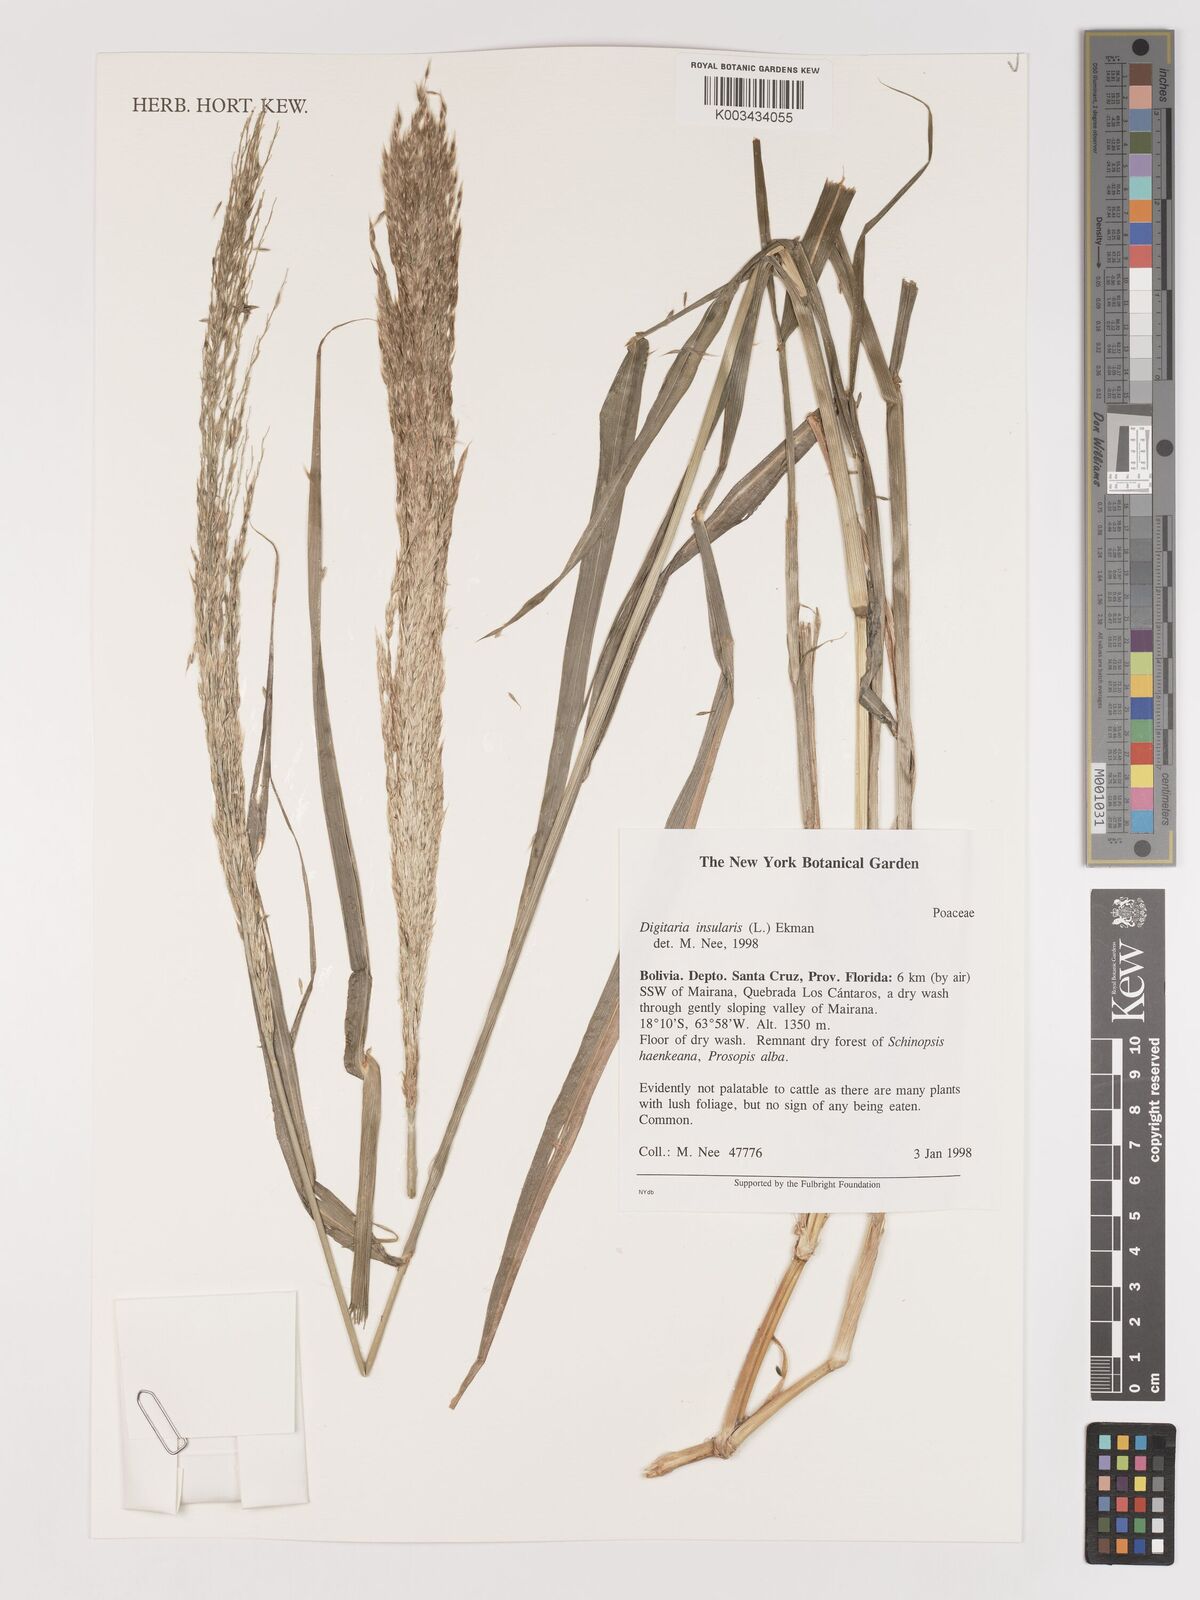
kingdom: Plantae
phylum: Tracheophyta
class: Liliopsida
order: Poales
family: Poaceae
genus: Digitaria
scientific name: Digitaria insularis
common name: Sourgrass
